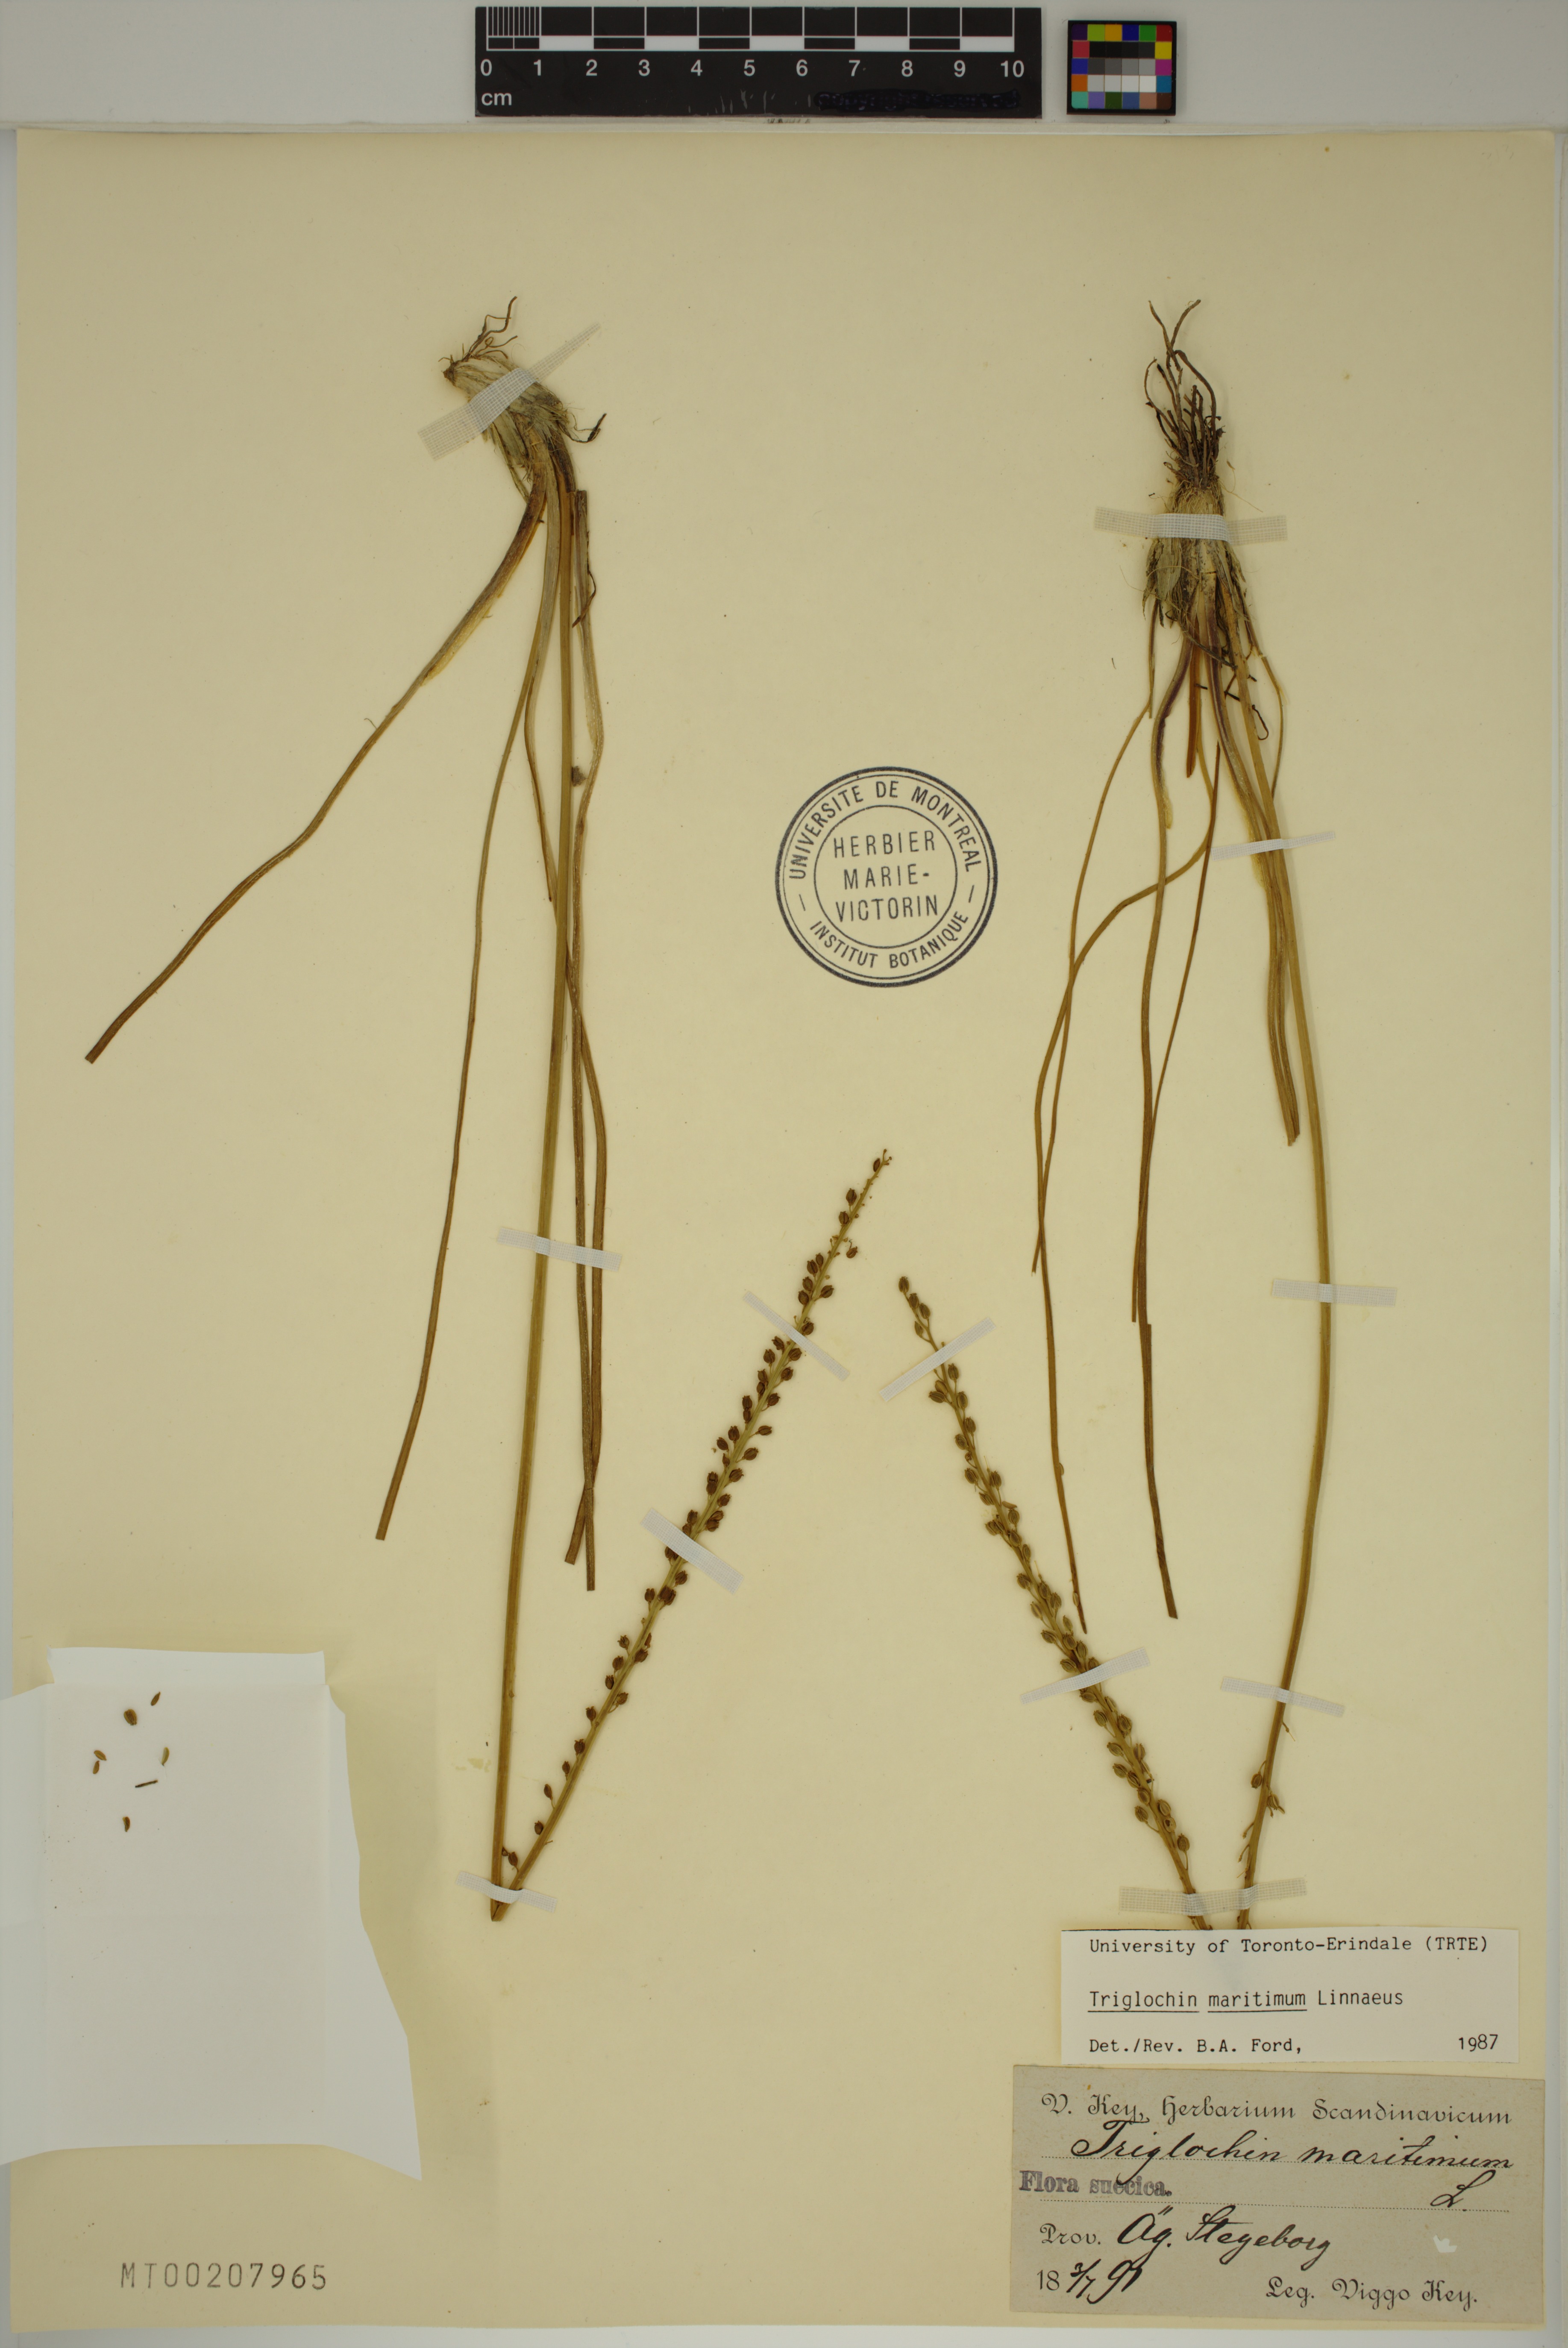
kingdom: Plantae
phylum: Tracheophyta
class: Liliopsida
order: Alismatales
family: Juncaginaceae
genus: Triglochin
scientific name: Triglochin maritima
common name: Sea arrowgrass
